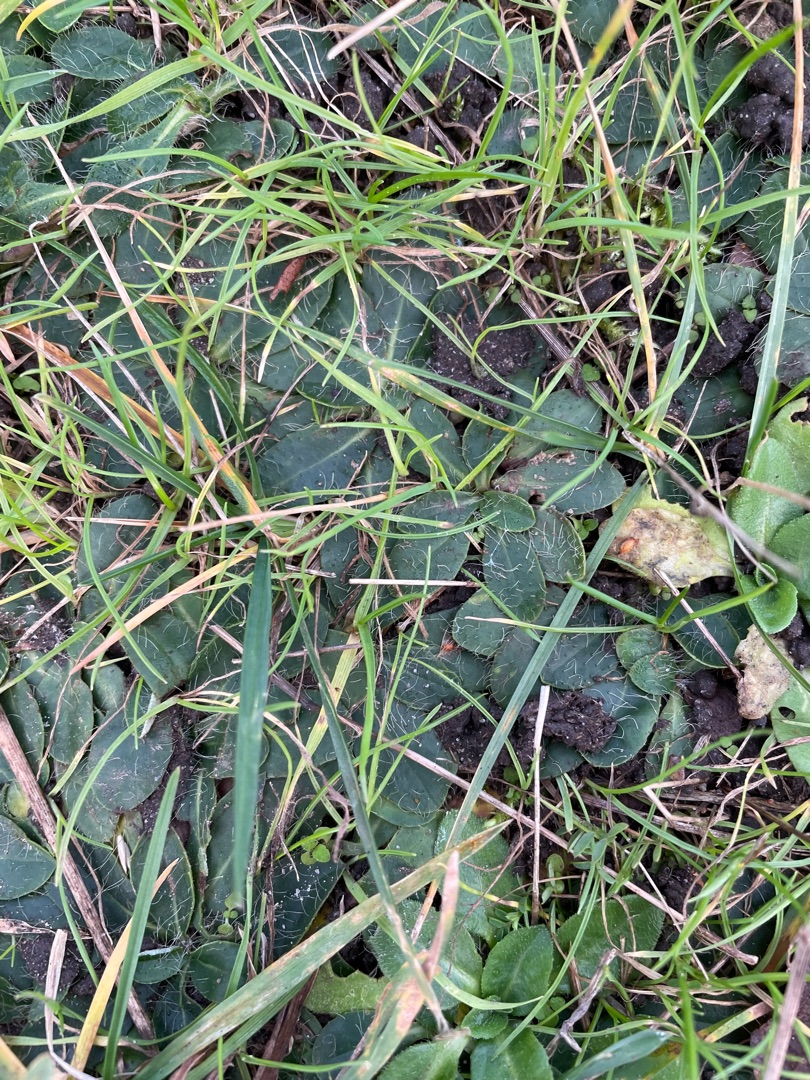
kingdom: Plantae
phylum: Tracheophyta
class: Magnoliopsida
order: Asterales
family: Asteraceae
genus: Pilosella
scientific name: Pilosella officinarum
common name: Håret høgeurt
